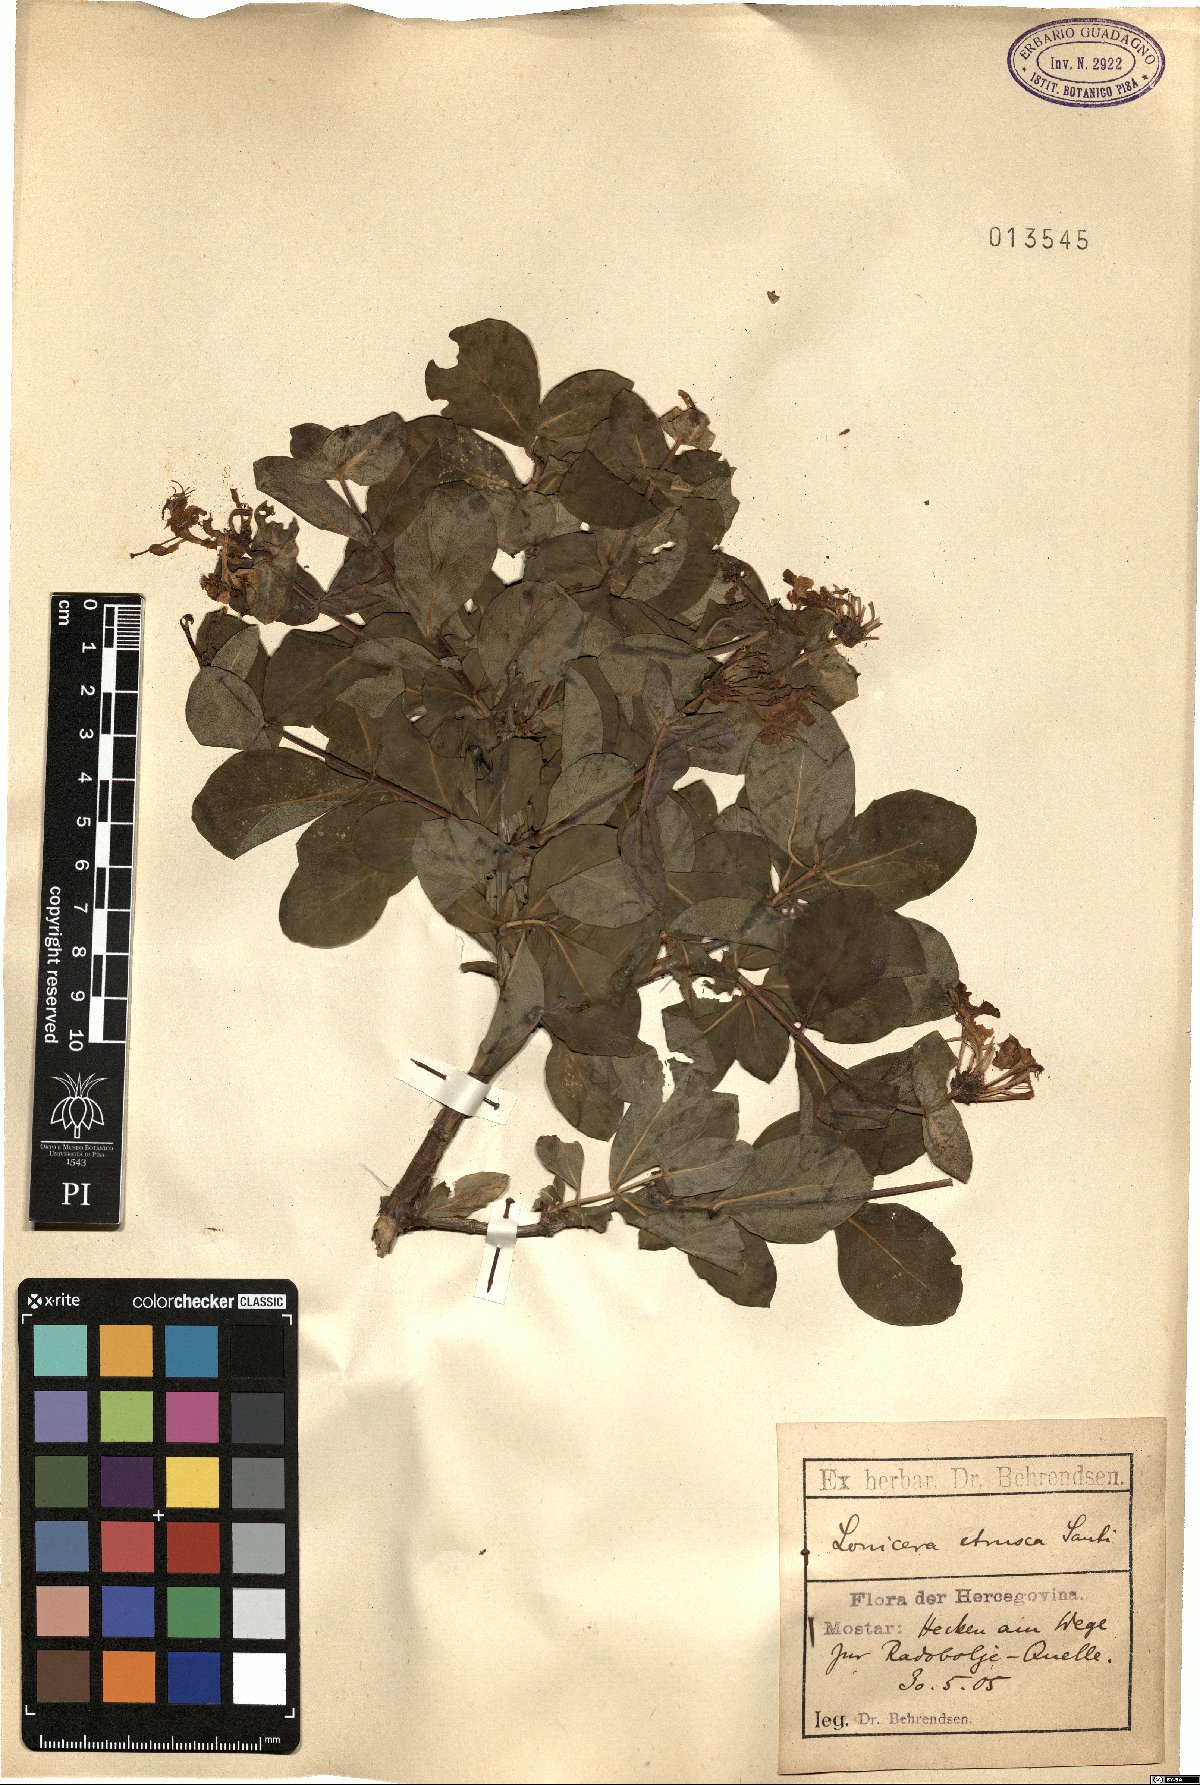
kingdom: Plantae
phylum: Tracheophyta
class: Magnoliopsida
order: Dipsacales
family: Caprifoliaceae
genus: Lonicera
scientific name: Lonicera etrusca
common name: Etruscan honeysuckle
